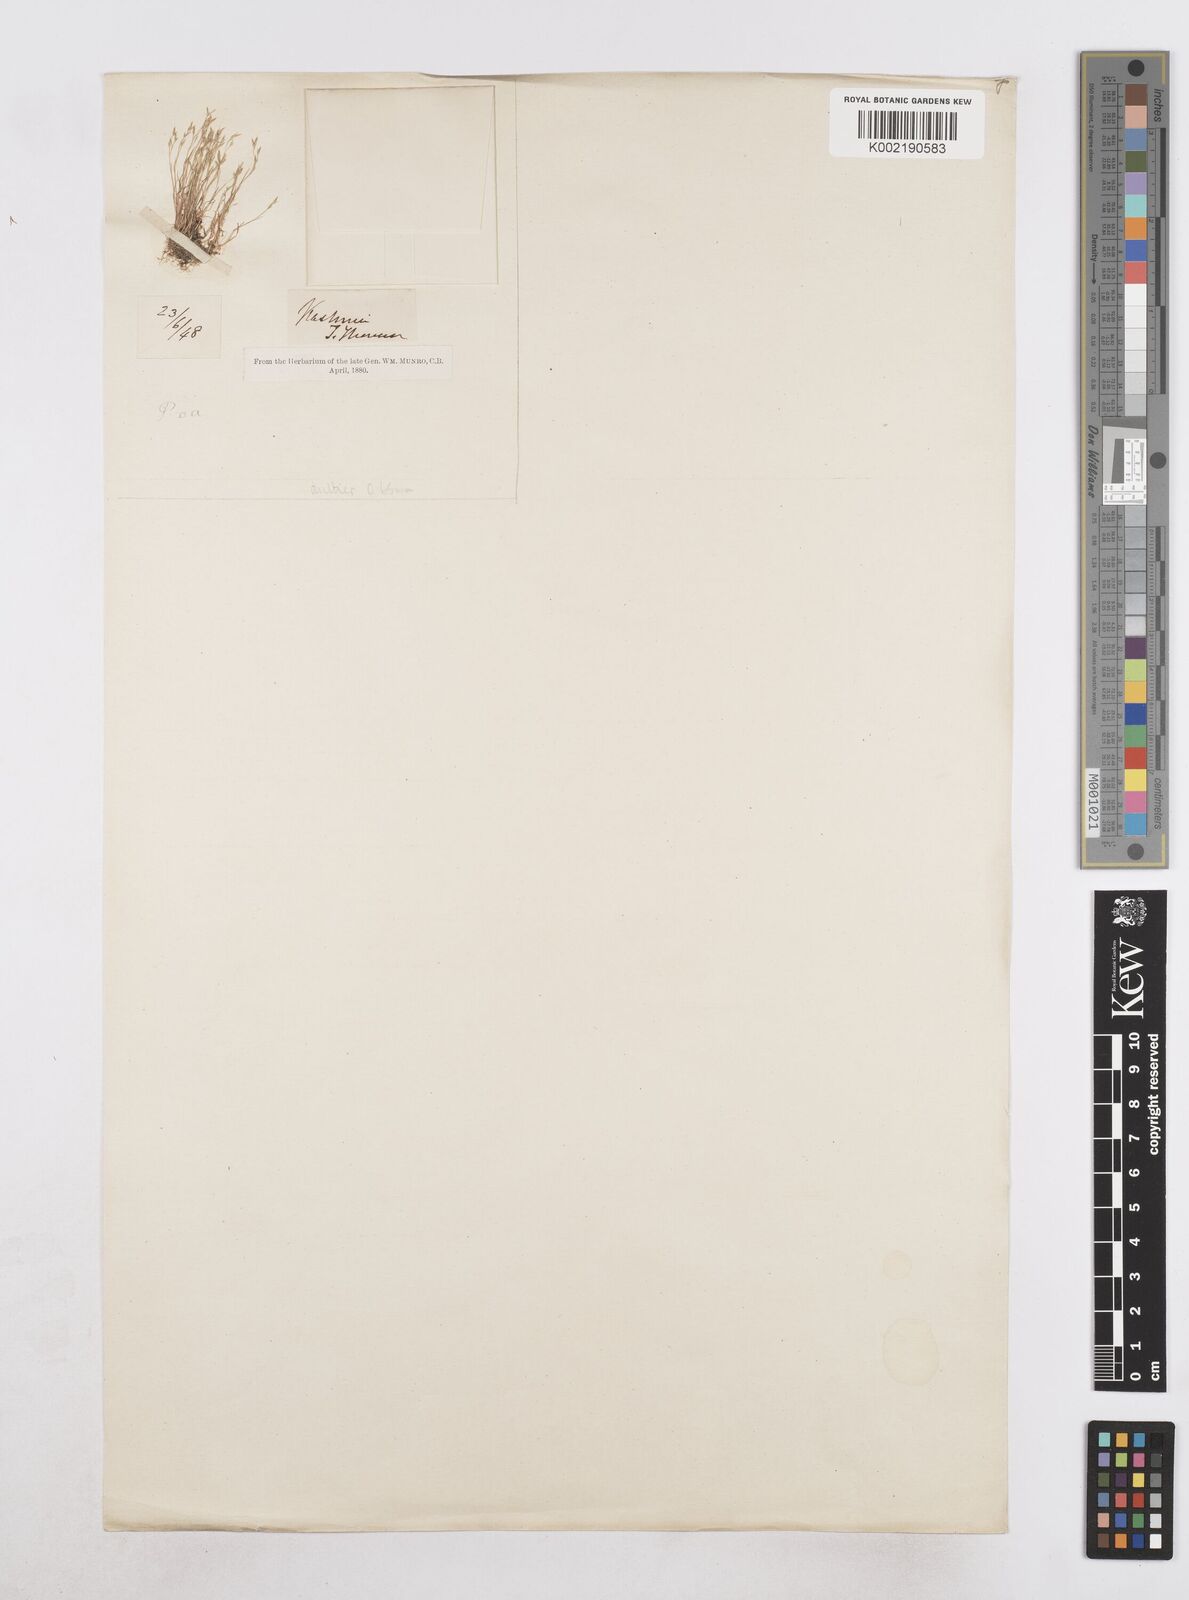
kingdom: Plantae
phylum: Tracheophyta
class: Liliopsida
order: Poales
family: Poaceae
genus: Poa
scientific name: Poa diaphora
